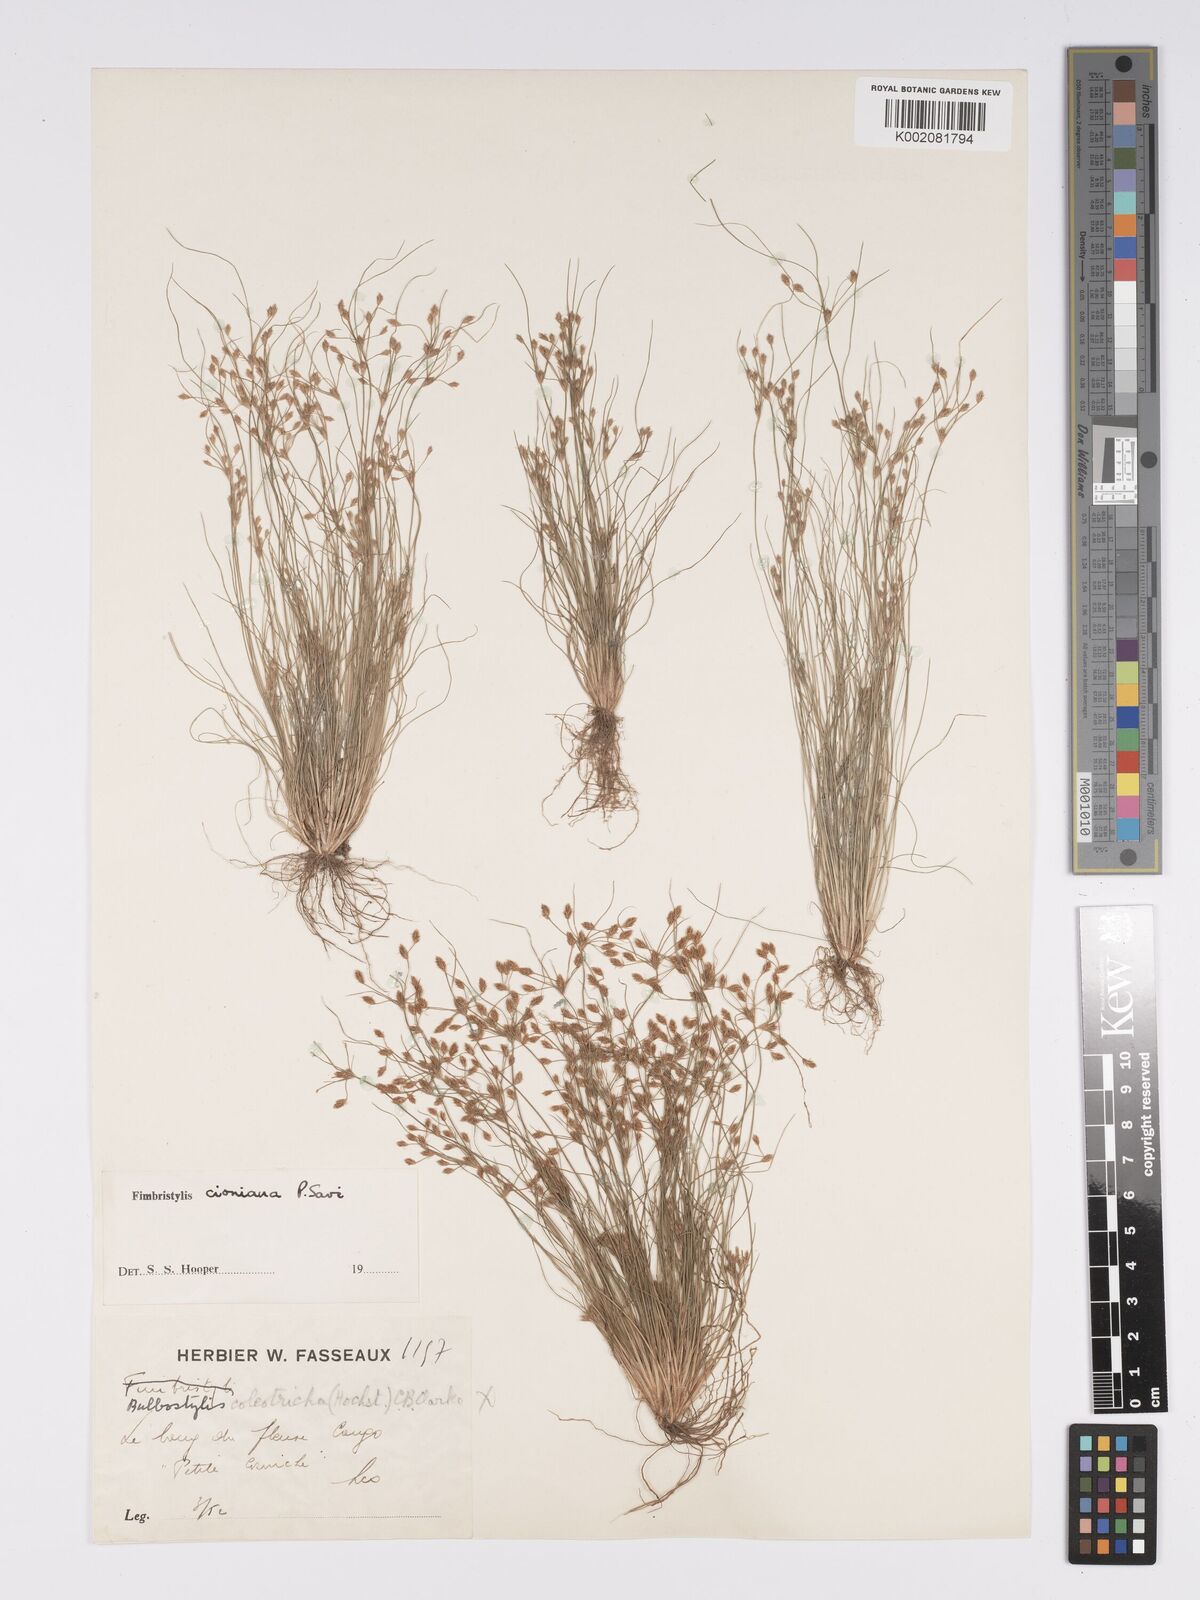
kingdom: Plantae
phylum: Tracheophyta
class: Liliopsida
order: Poales
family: Cyperaceae
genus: Bulbostylis
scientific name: Bulbostylis cioniana
